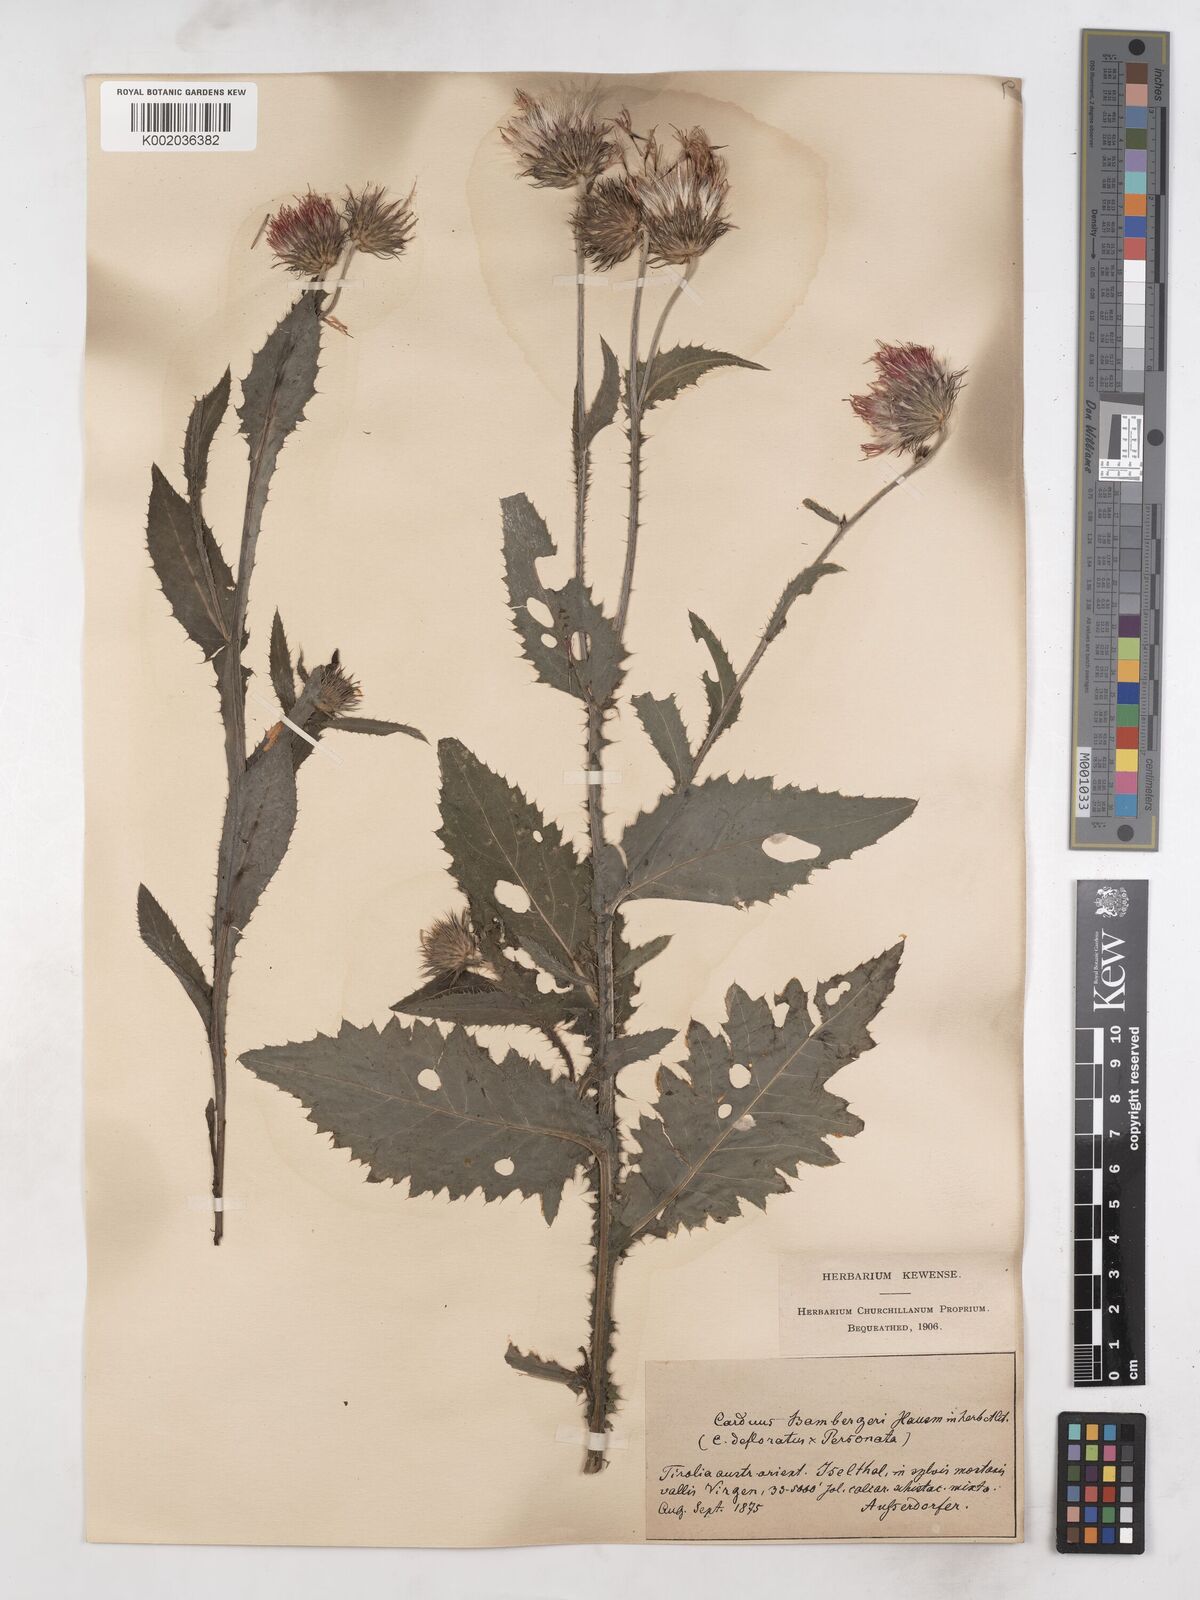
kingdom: Plantae
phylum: Tracheophyta
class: Magnoliopsida
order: Asterales
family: Asteraceae
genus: Carduus
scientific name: Carduus personata
